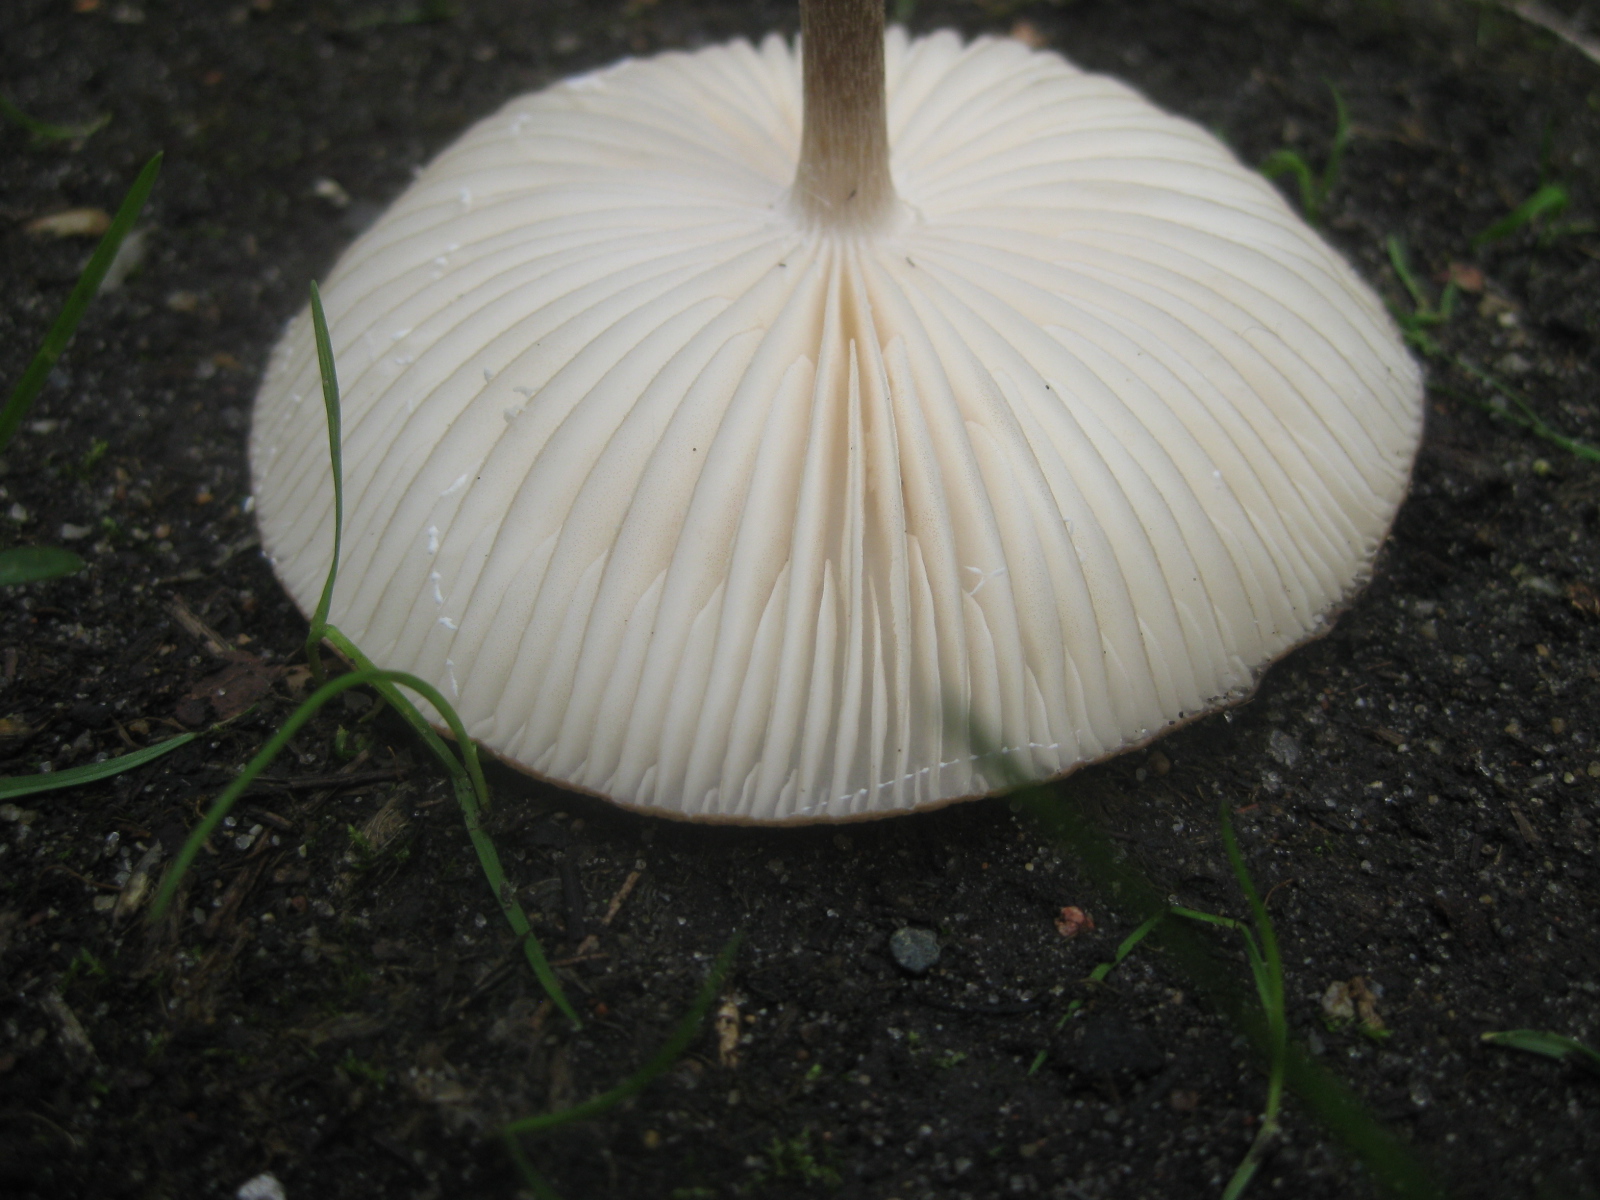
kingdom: Fungi
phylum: Basidiomycota
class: Agaricomycetes
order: Agaricales
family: Physalacriaceae
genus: Hymenopellis
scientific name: Hymenopellis radicata
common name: almindelig pælerodshat
